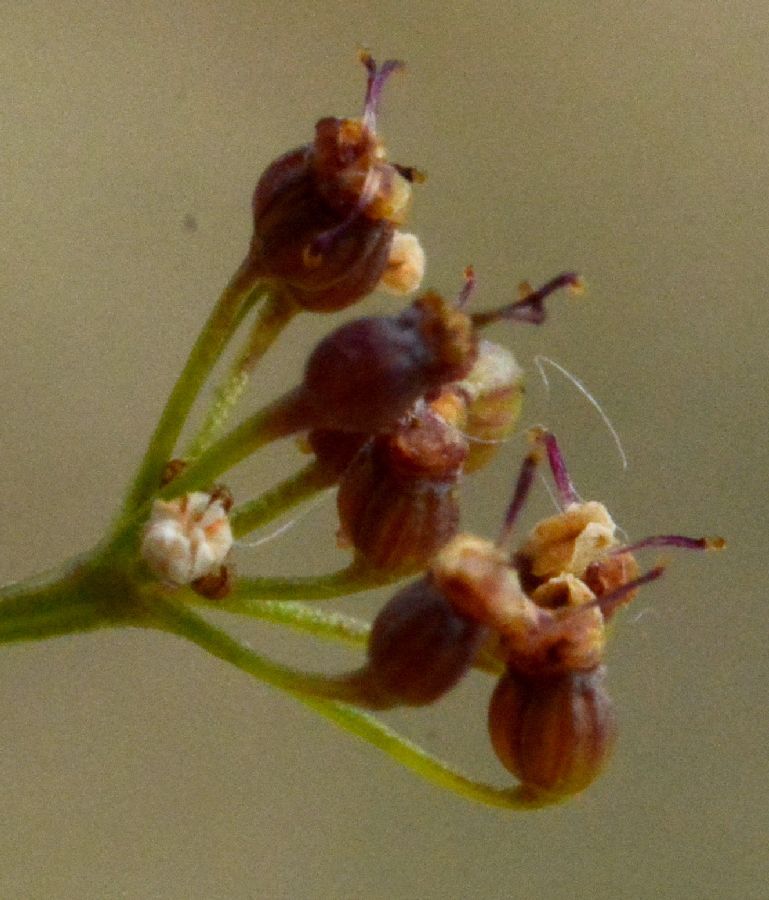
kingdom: Plantae
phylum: Tracheophyta
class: Magnoliopsida
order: Apiales
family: Apiaceae
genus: Pimpinella
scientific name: Pimpinella saxifraga
